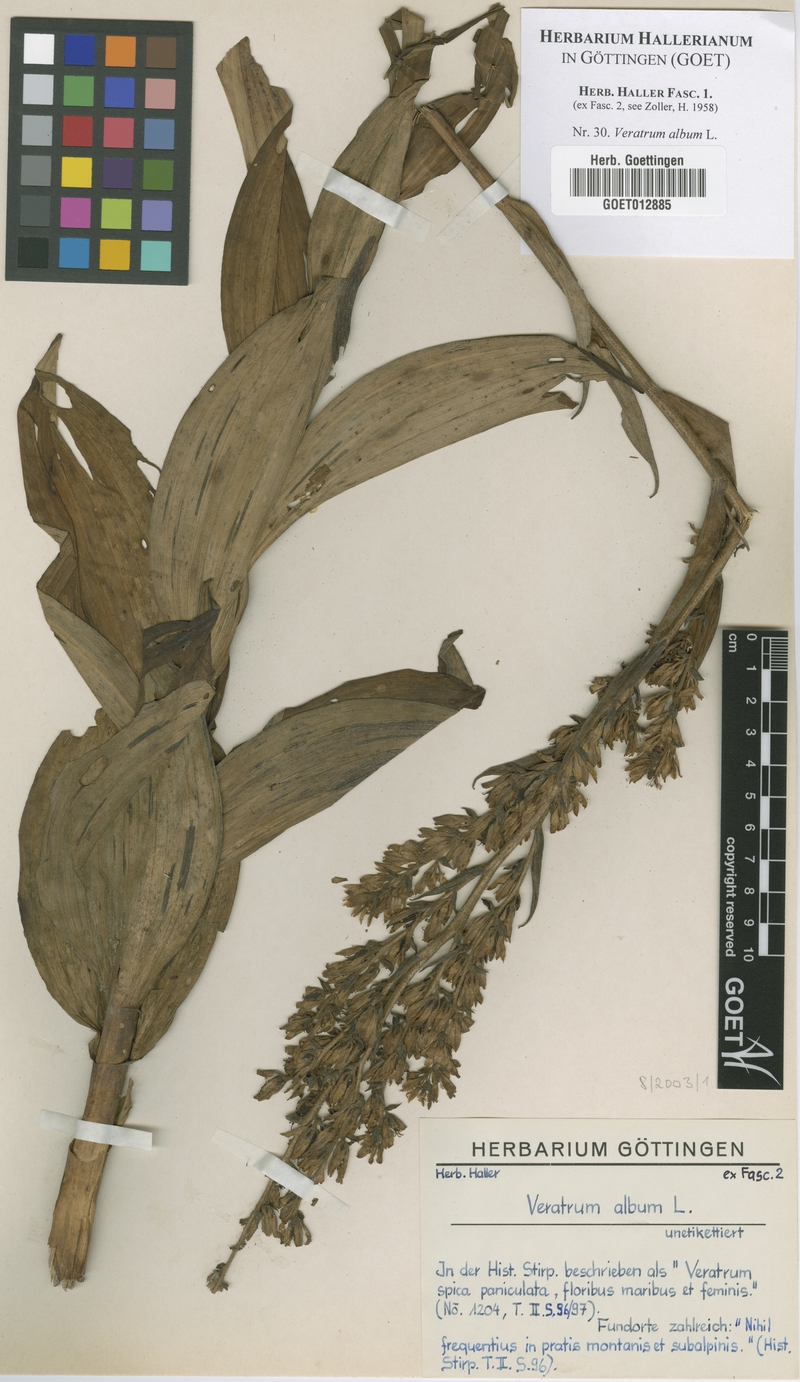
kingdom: Plantae
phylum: Tracheophyta
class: Liliopsida
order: Liliales
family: Melanthiaceae
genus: Veratrum
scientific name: Veratrum album
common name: White veratrum
